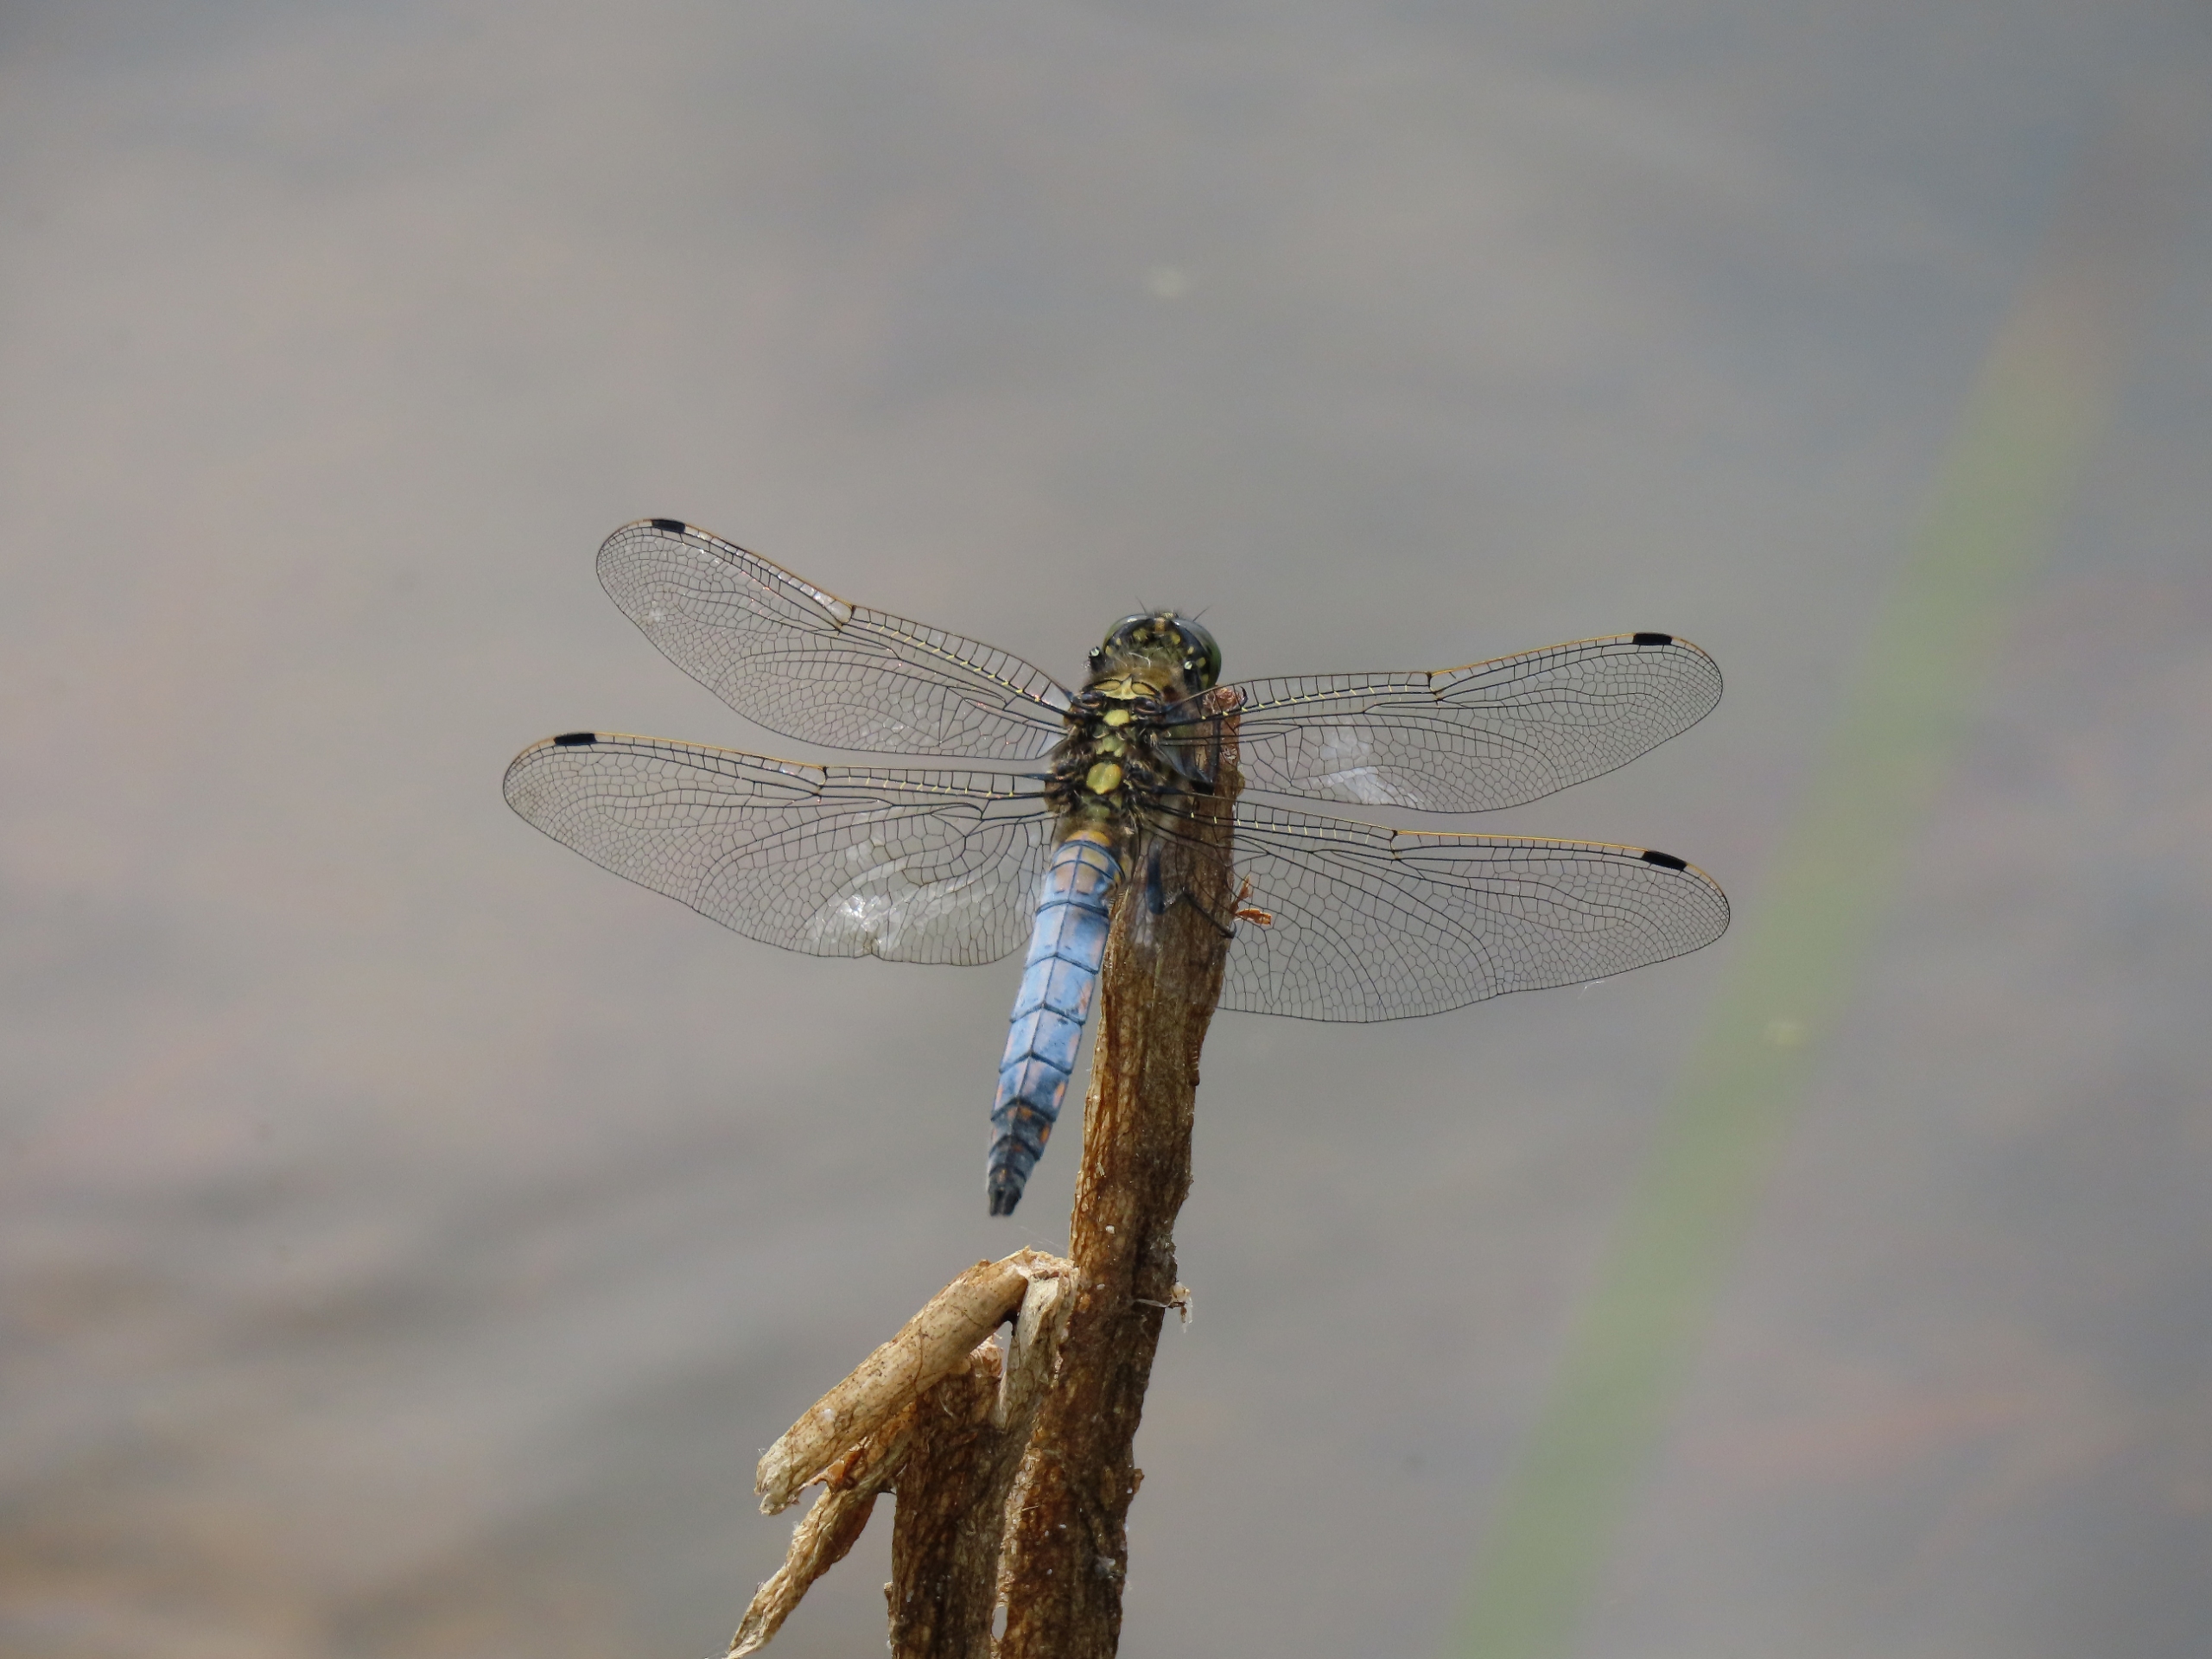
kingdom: Animalia
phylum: Arthropoda
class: Insecta
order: Odonata
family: Libellulidae
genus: Orthetrum
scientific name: Orthetrum cancellatum
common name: Stor blåpil
